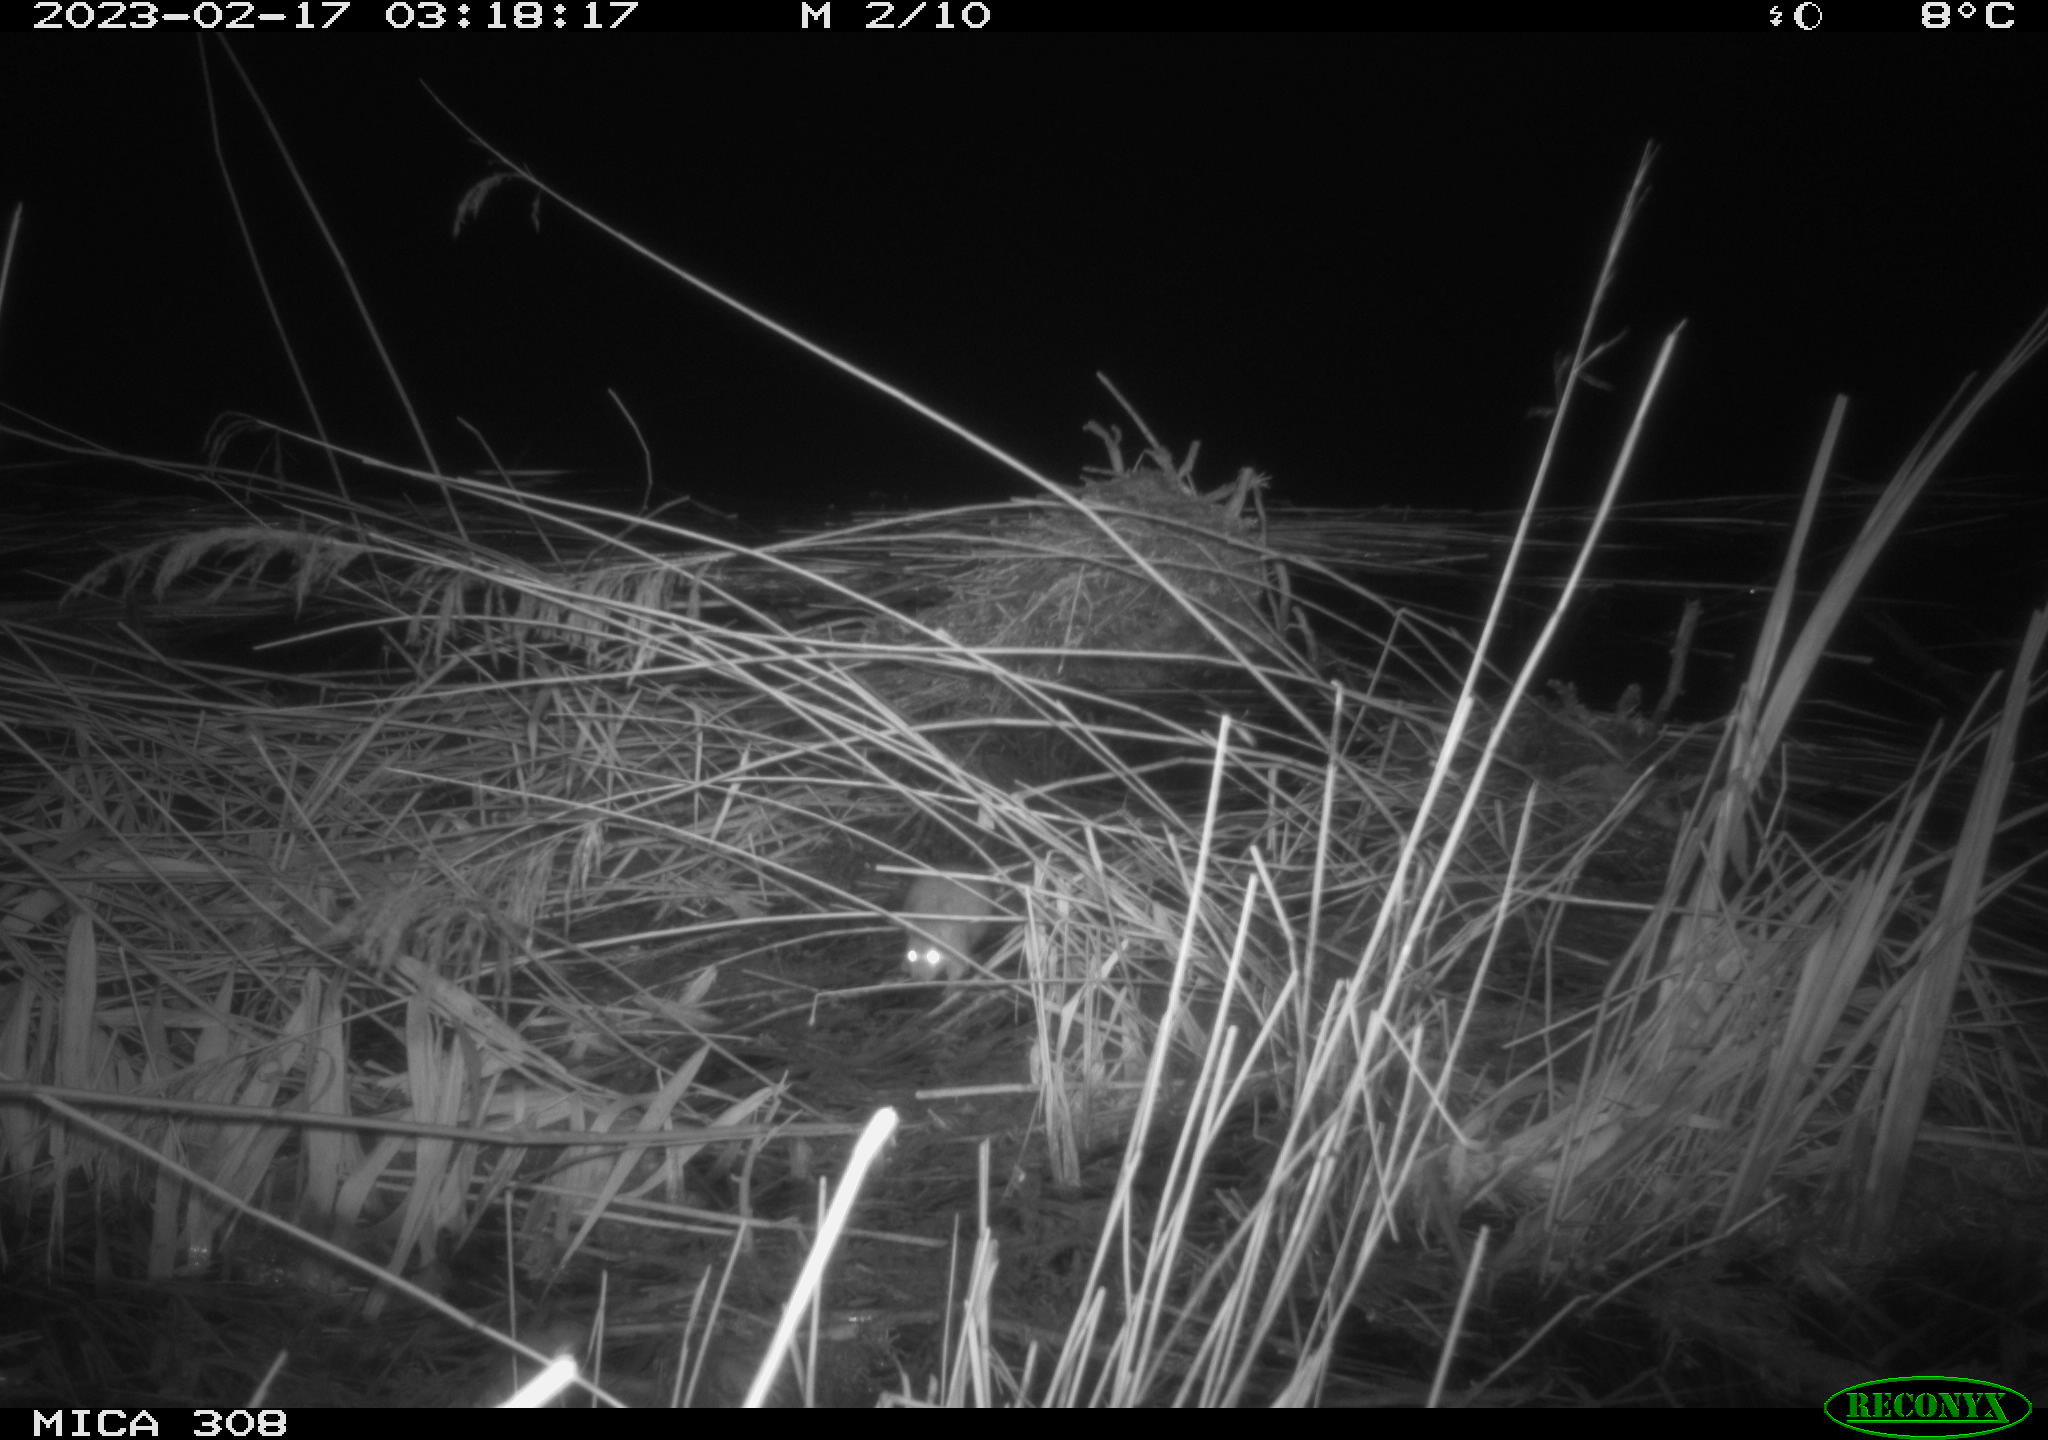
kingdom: Animalia
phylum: Chordata
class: Mammalia
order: Rodentia
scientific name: Rodentia
